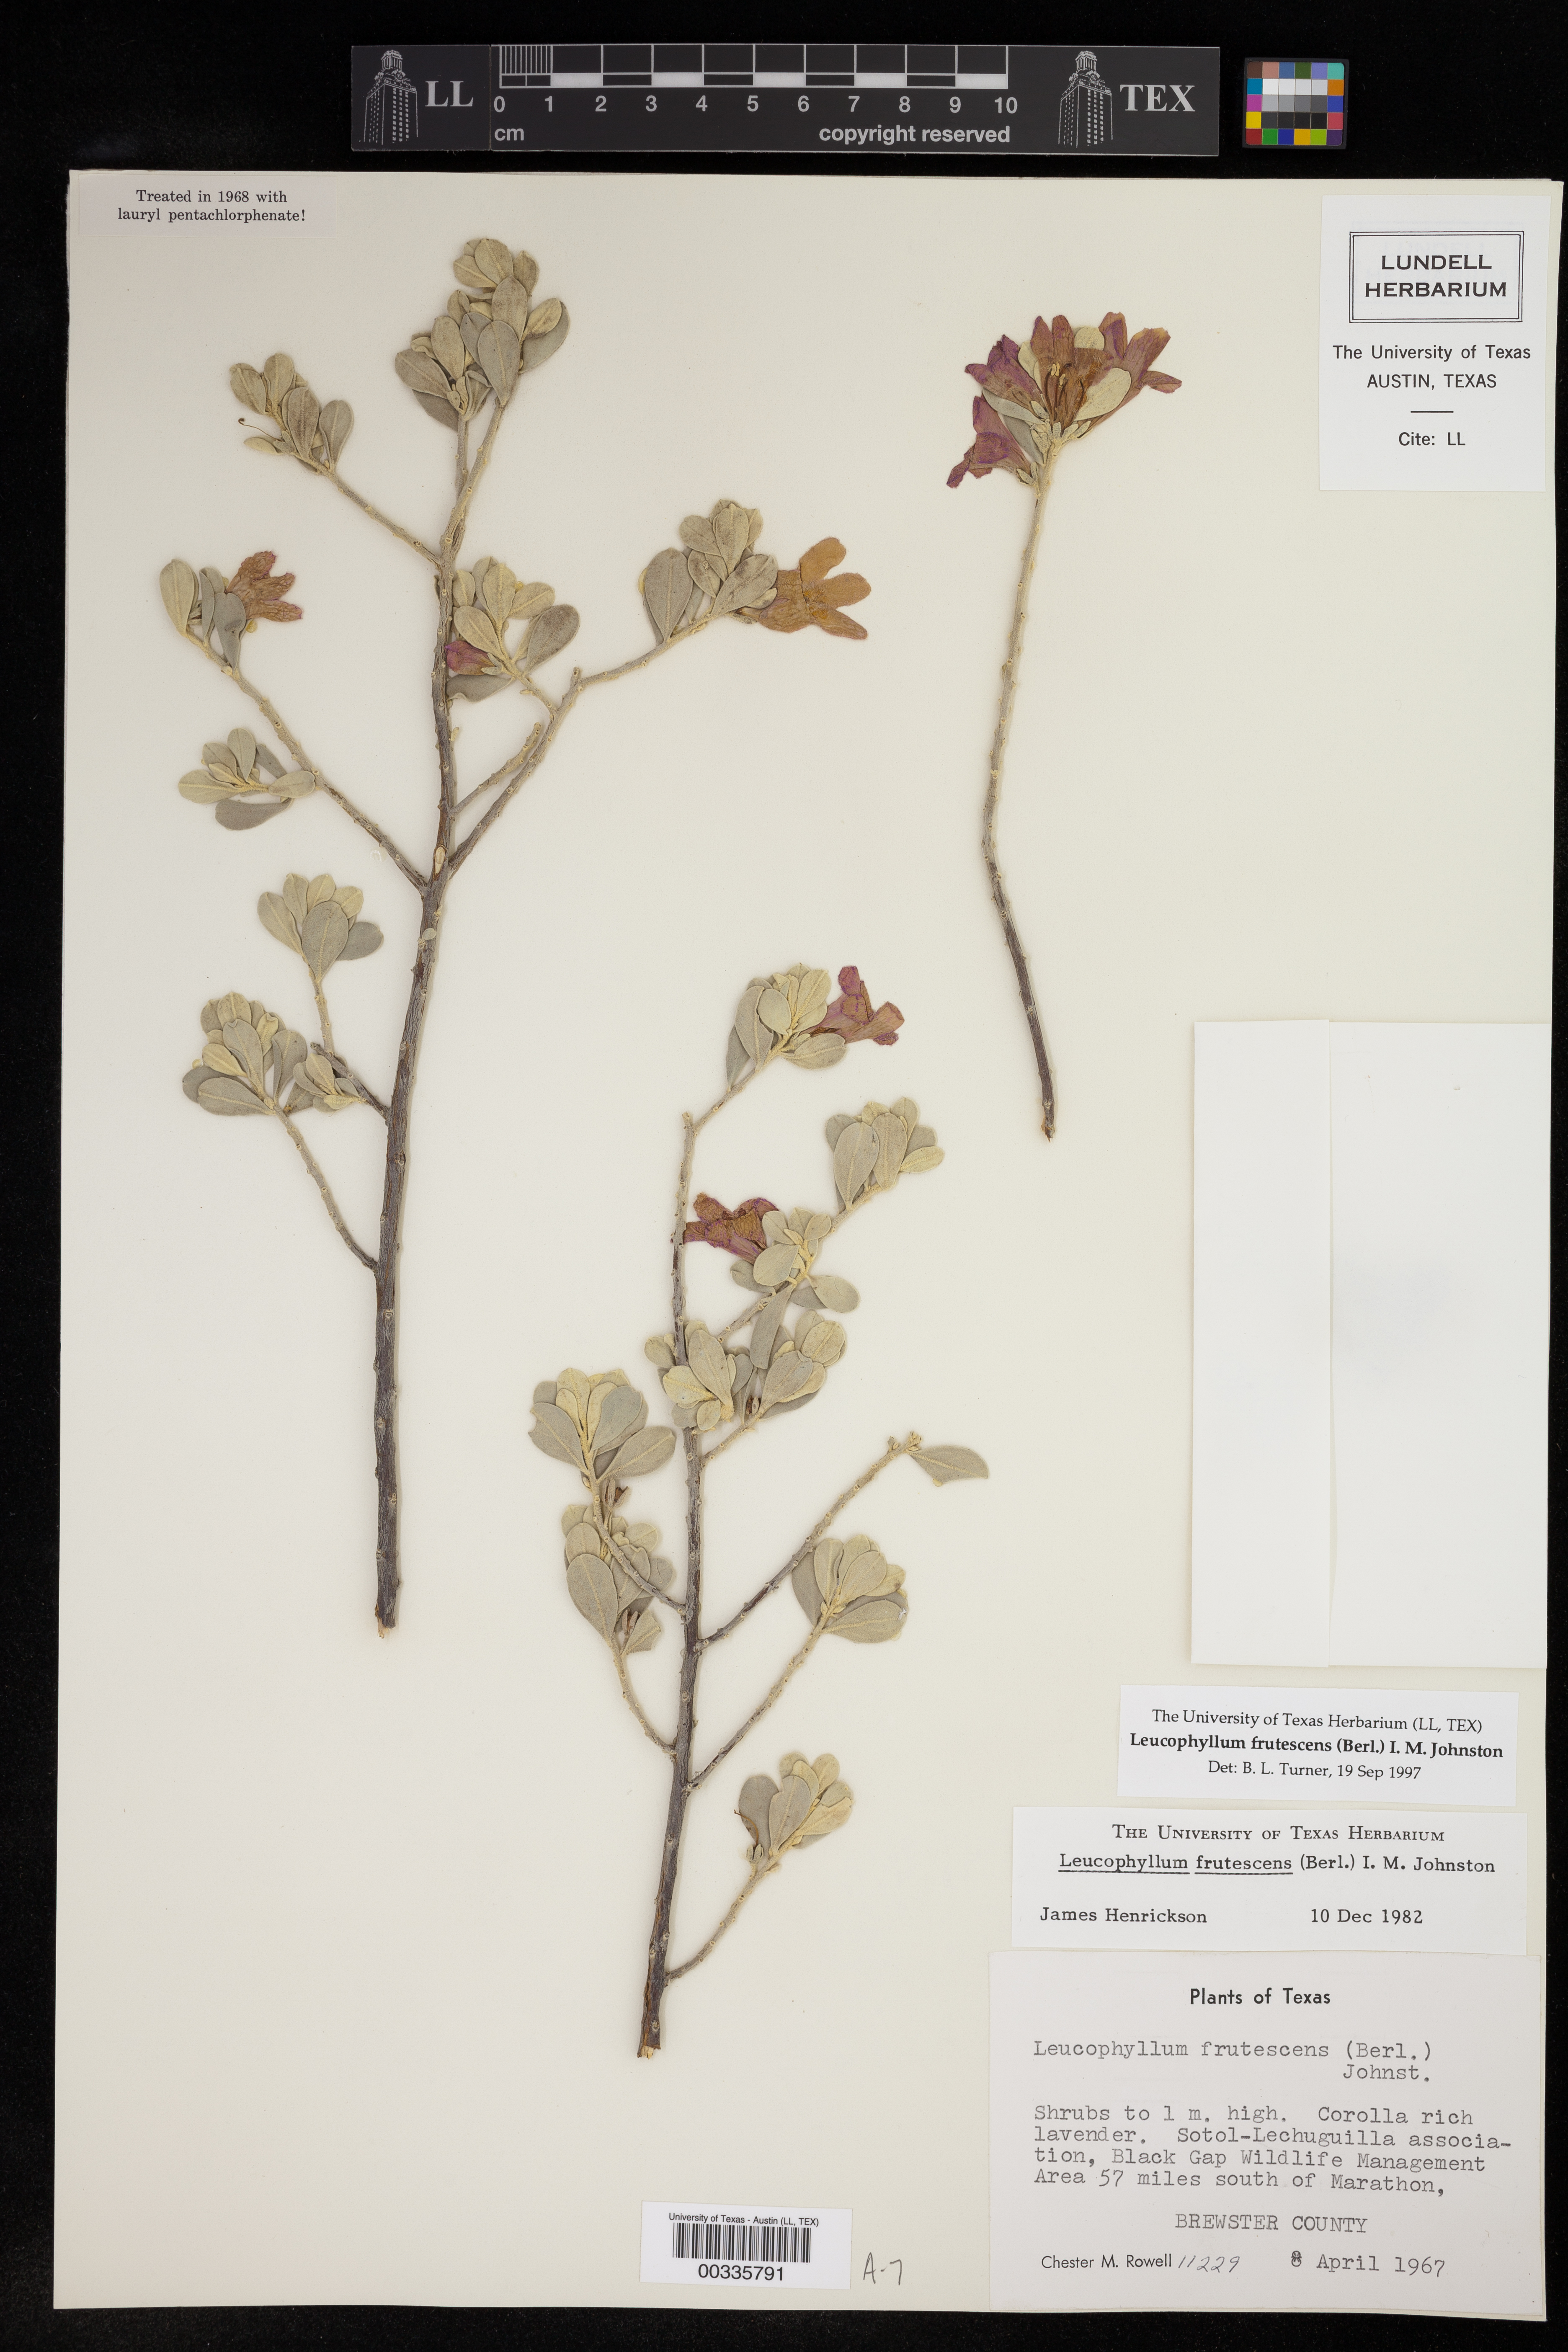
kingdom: Plantae
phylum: Tracheophyta
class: Magnoliopsida
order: Lamiales
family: Scrophulariaceae
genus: Leucophyllum
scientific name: Leucophyllum frutescens
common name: Texas silverleaf
